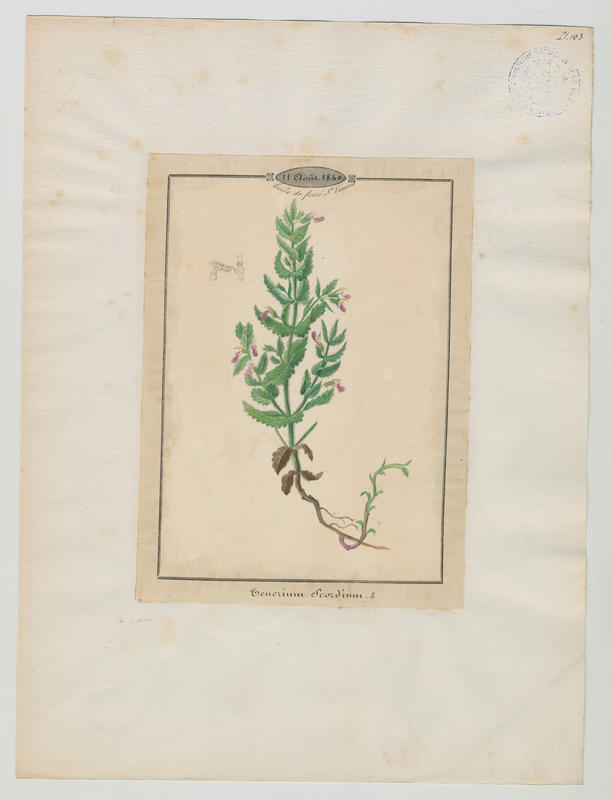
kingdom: Plantae
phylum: Tracheophyta
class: Magnoliopsida
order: Lamiales
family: Lamiaceae
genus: Teucrium
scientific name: Teucrium scordium
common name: Water germander
